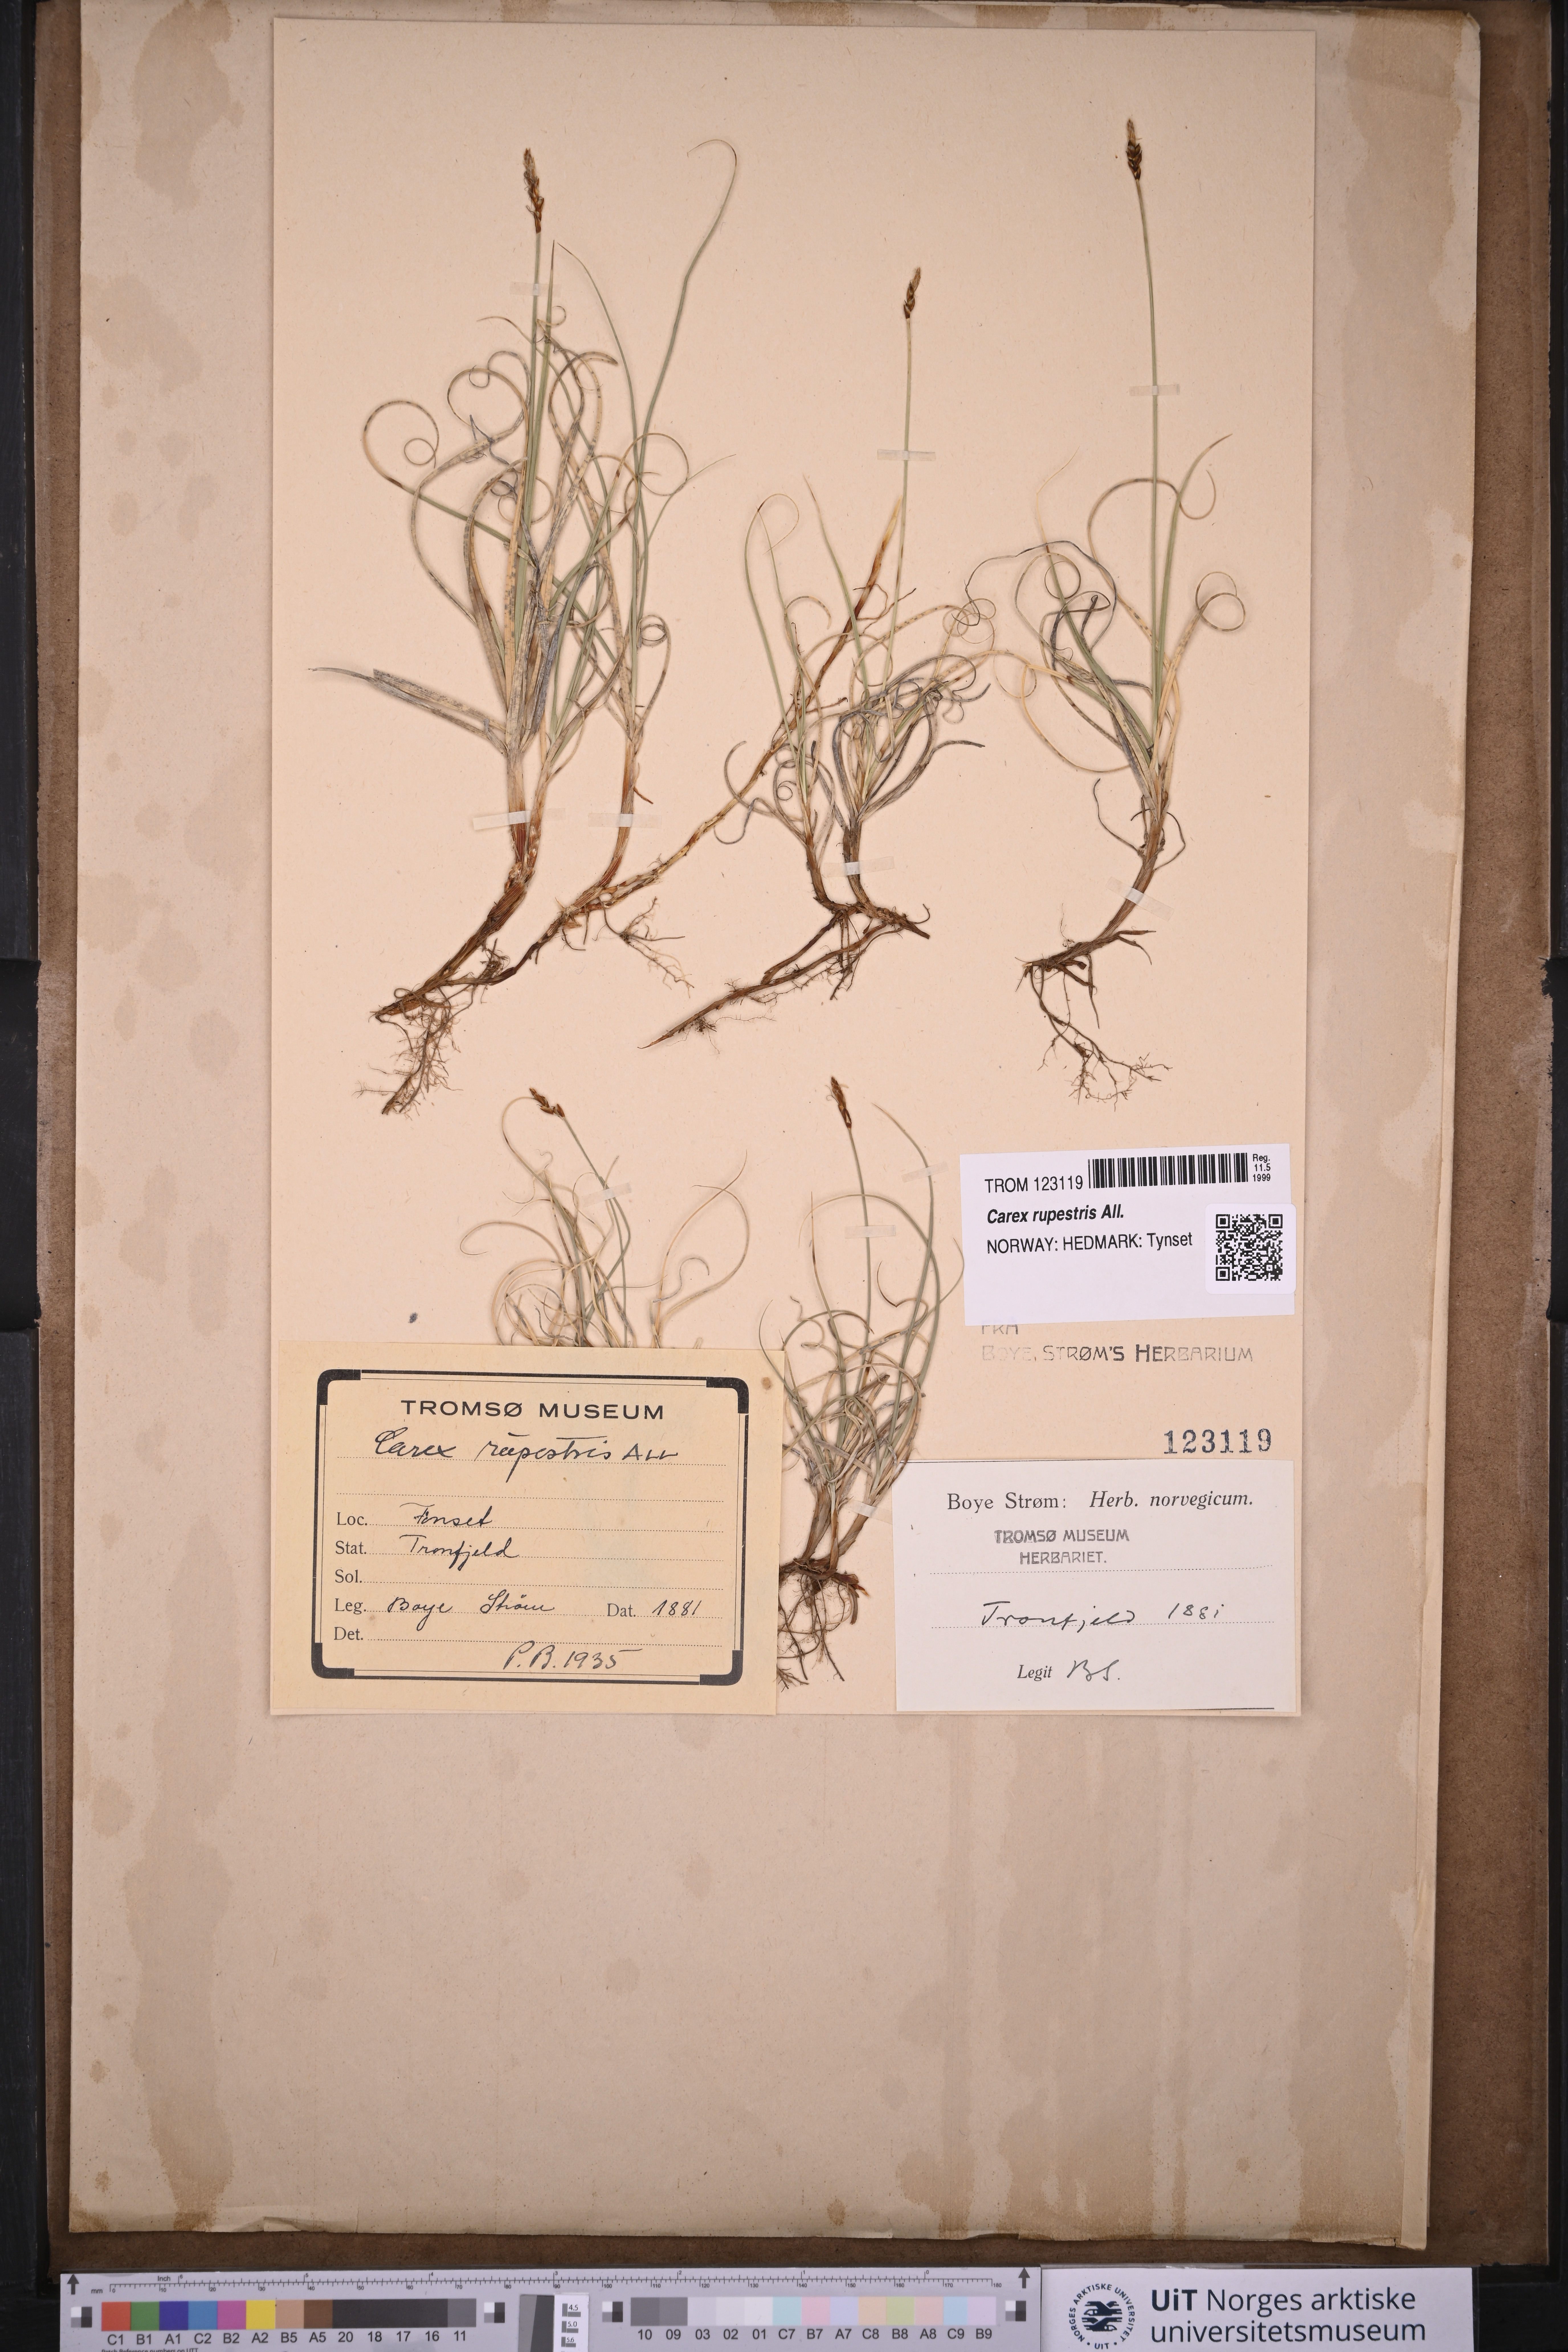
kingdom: Plantae
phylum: Tracheophyta
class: Liliopsida
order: Poales
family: Cyperaceae
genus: Carex
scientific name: Carex rupestris
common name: Rock sedge
